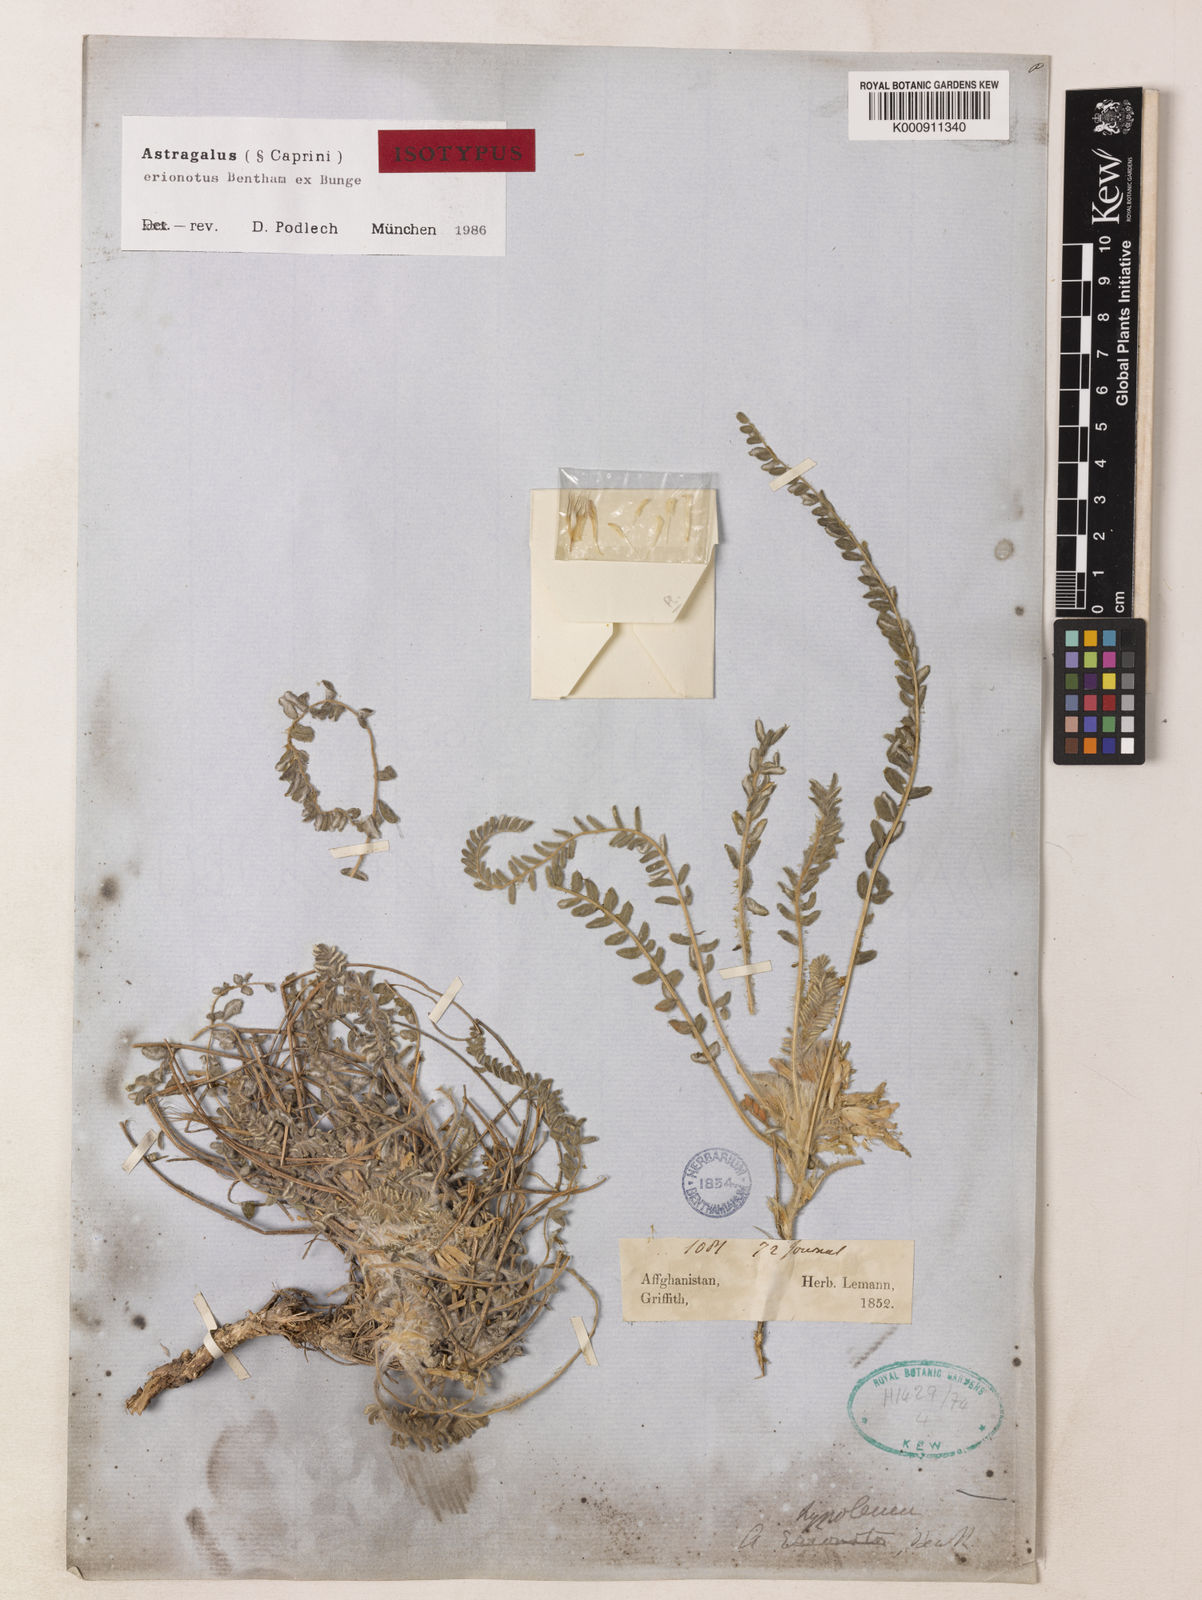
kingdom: Plantae
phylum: Tracheophyta
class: Magnoliopsida
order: Fabales
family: Fabaceae
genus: Astragalus
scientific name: Astragalus erionotus
